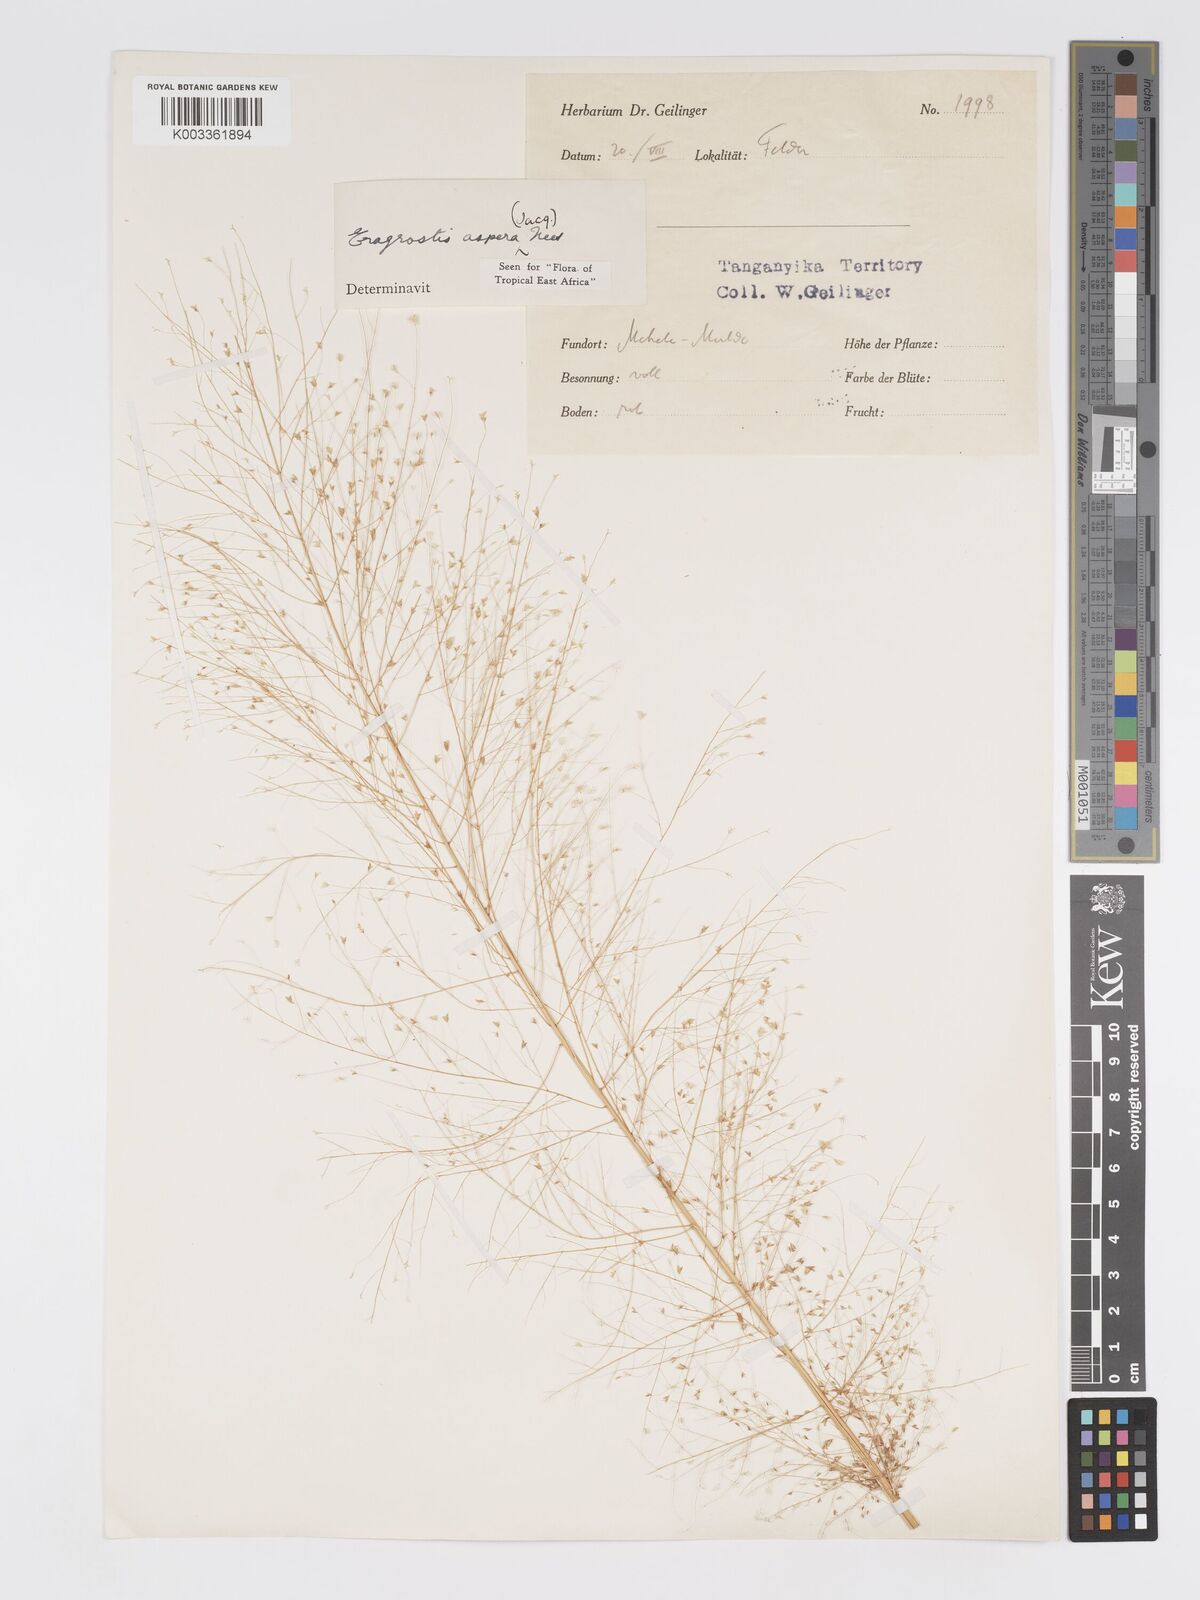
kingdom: Plantae
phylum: Tracheophyta
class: Liliopsida
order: Poales
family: Poaceae
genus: Eragrostis
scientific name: Eragrostis aspera
